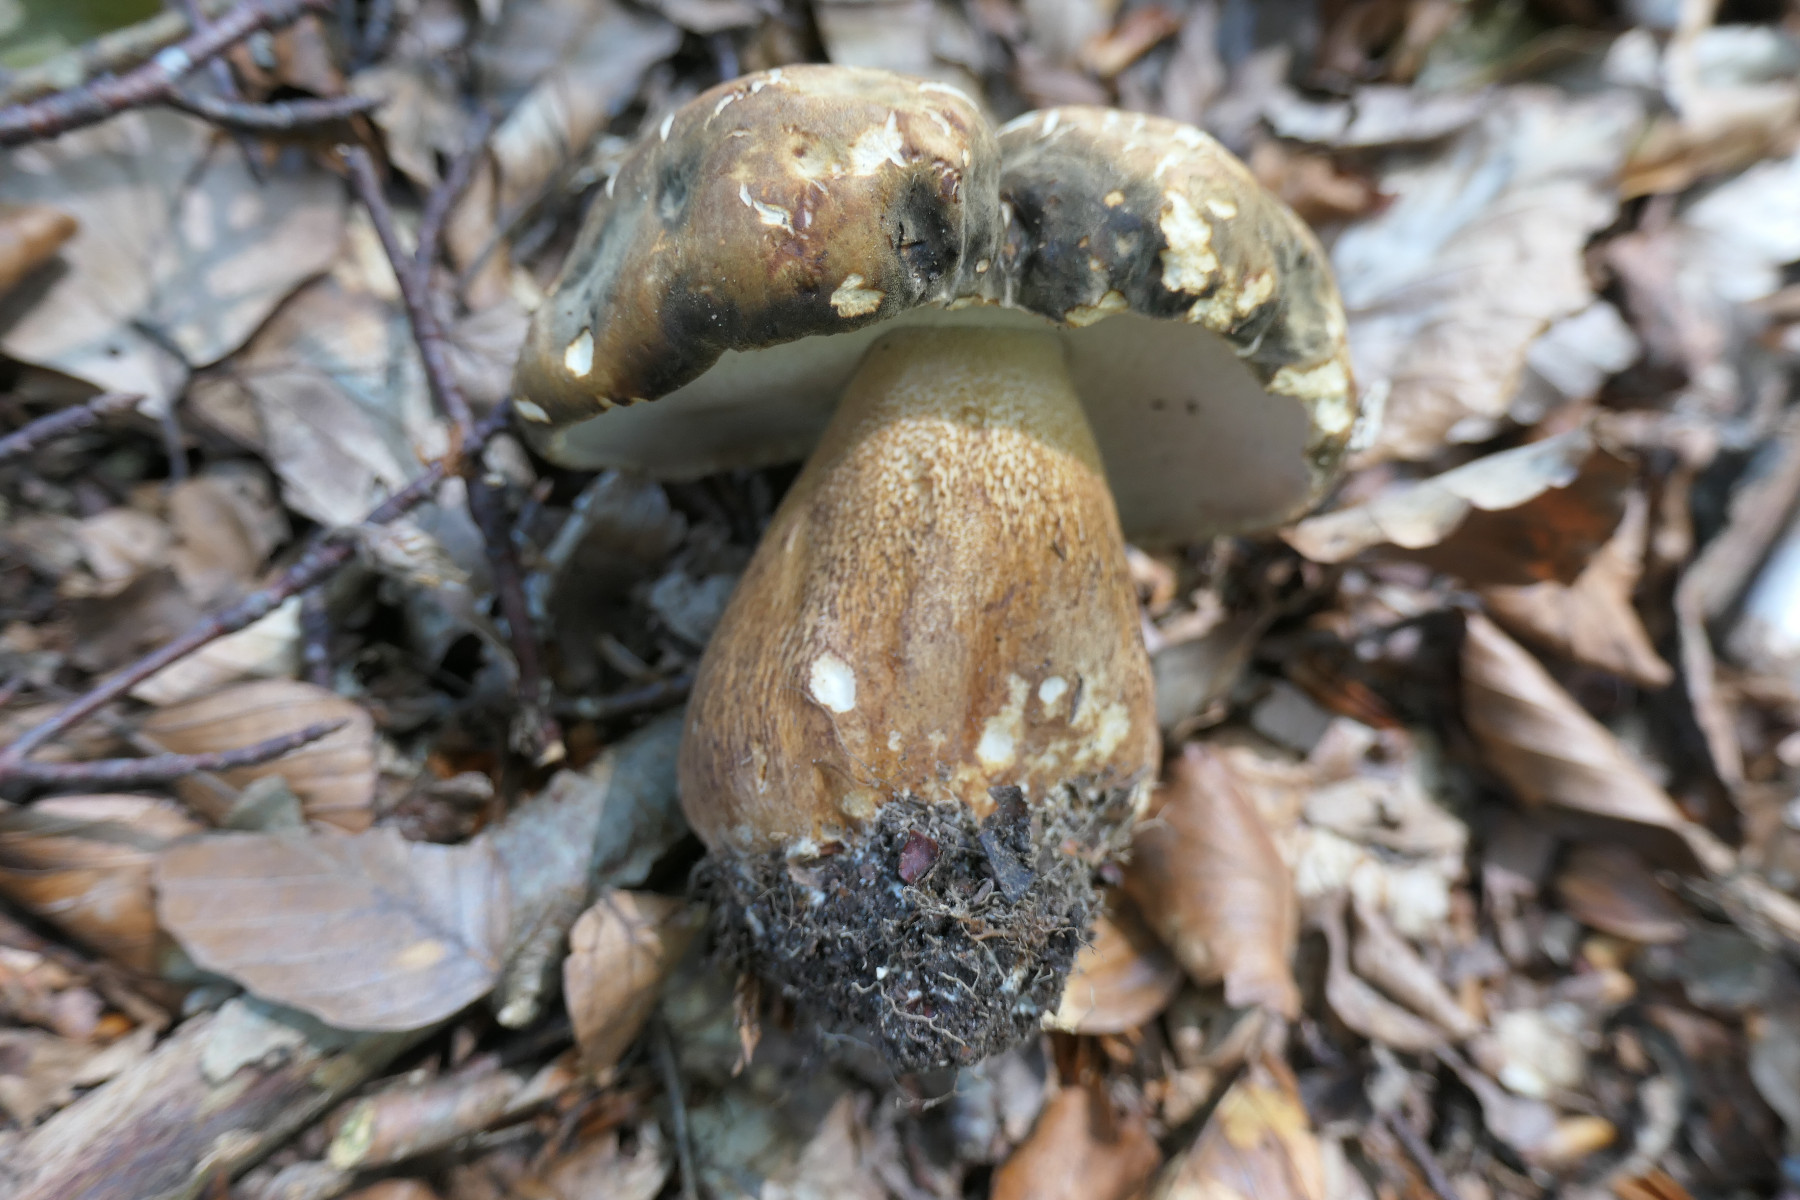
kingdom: Fungi
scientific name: Fungi
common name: bronze-rørhat
